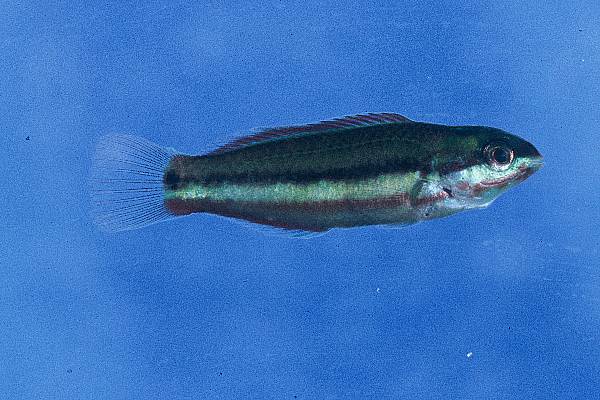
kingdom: Animalia
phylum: Chordata
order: Perciformes
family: Labridae
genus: Thalassoma
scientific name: Thalassoma
